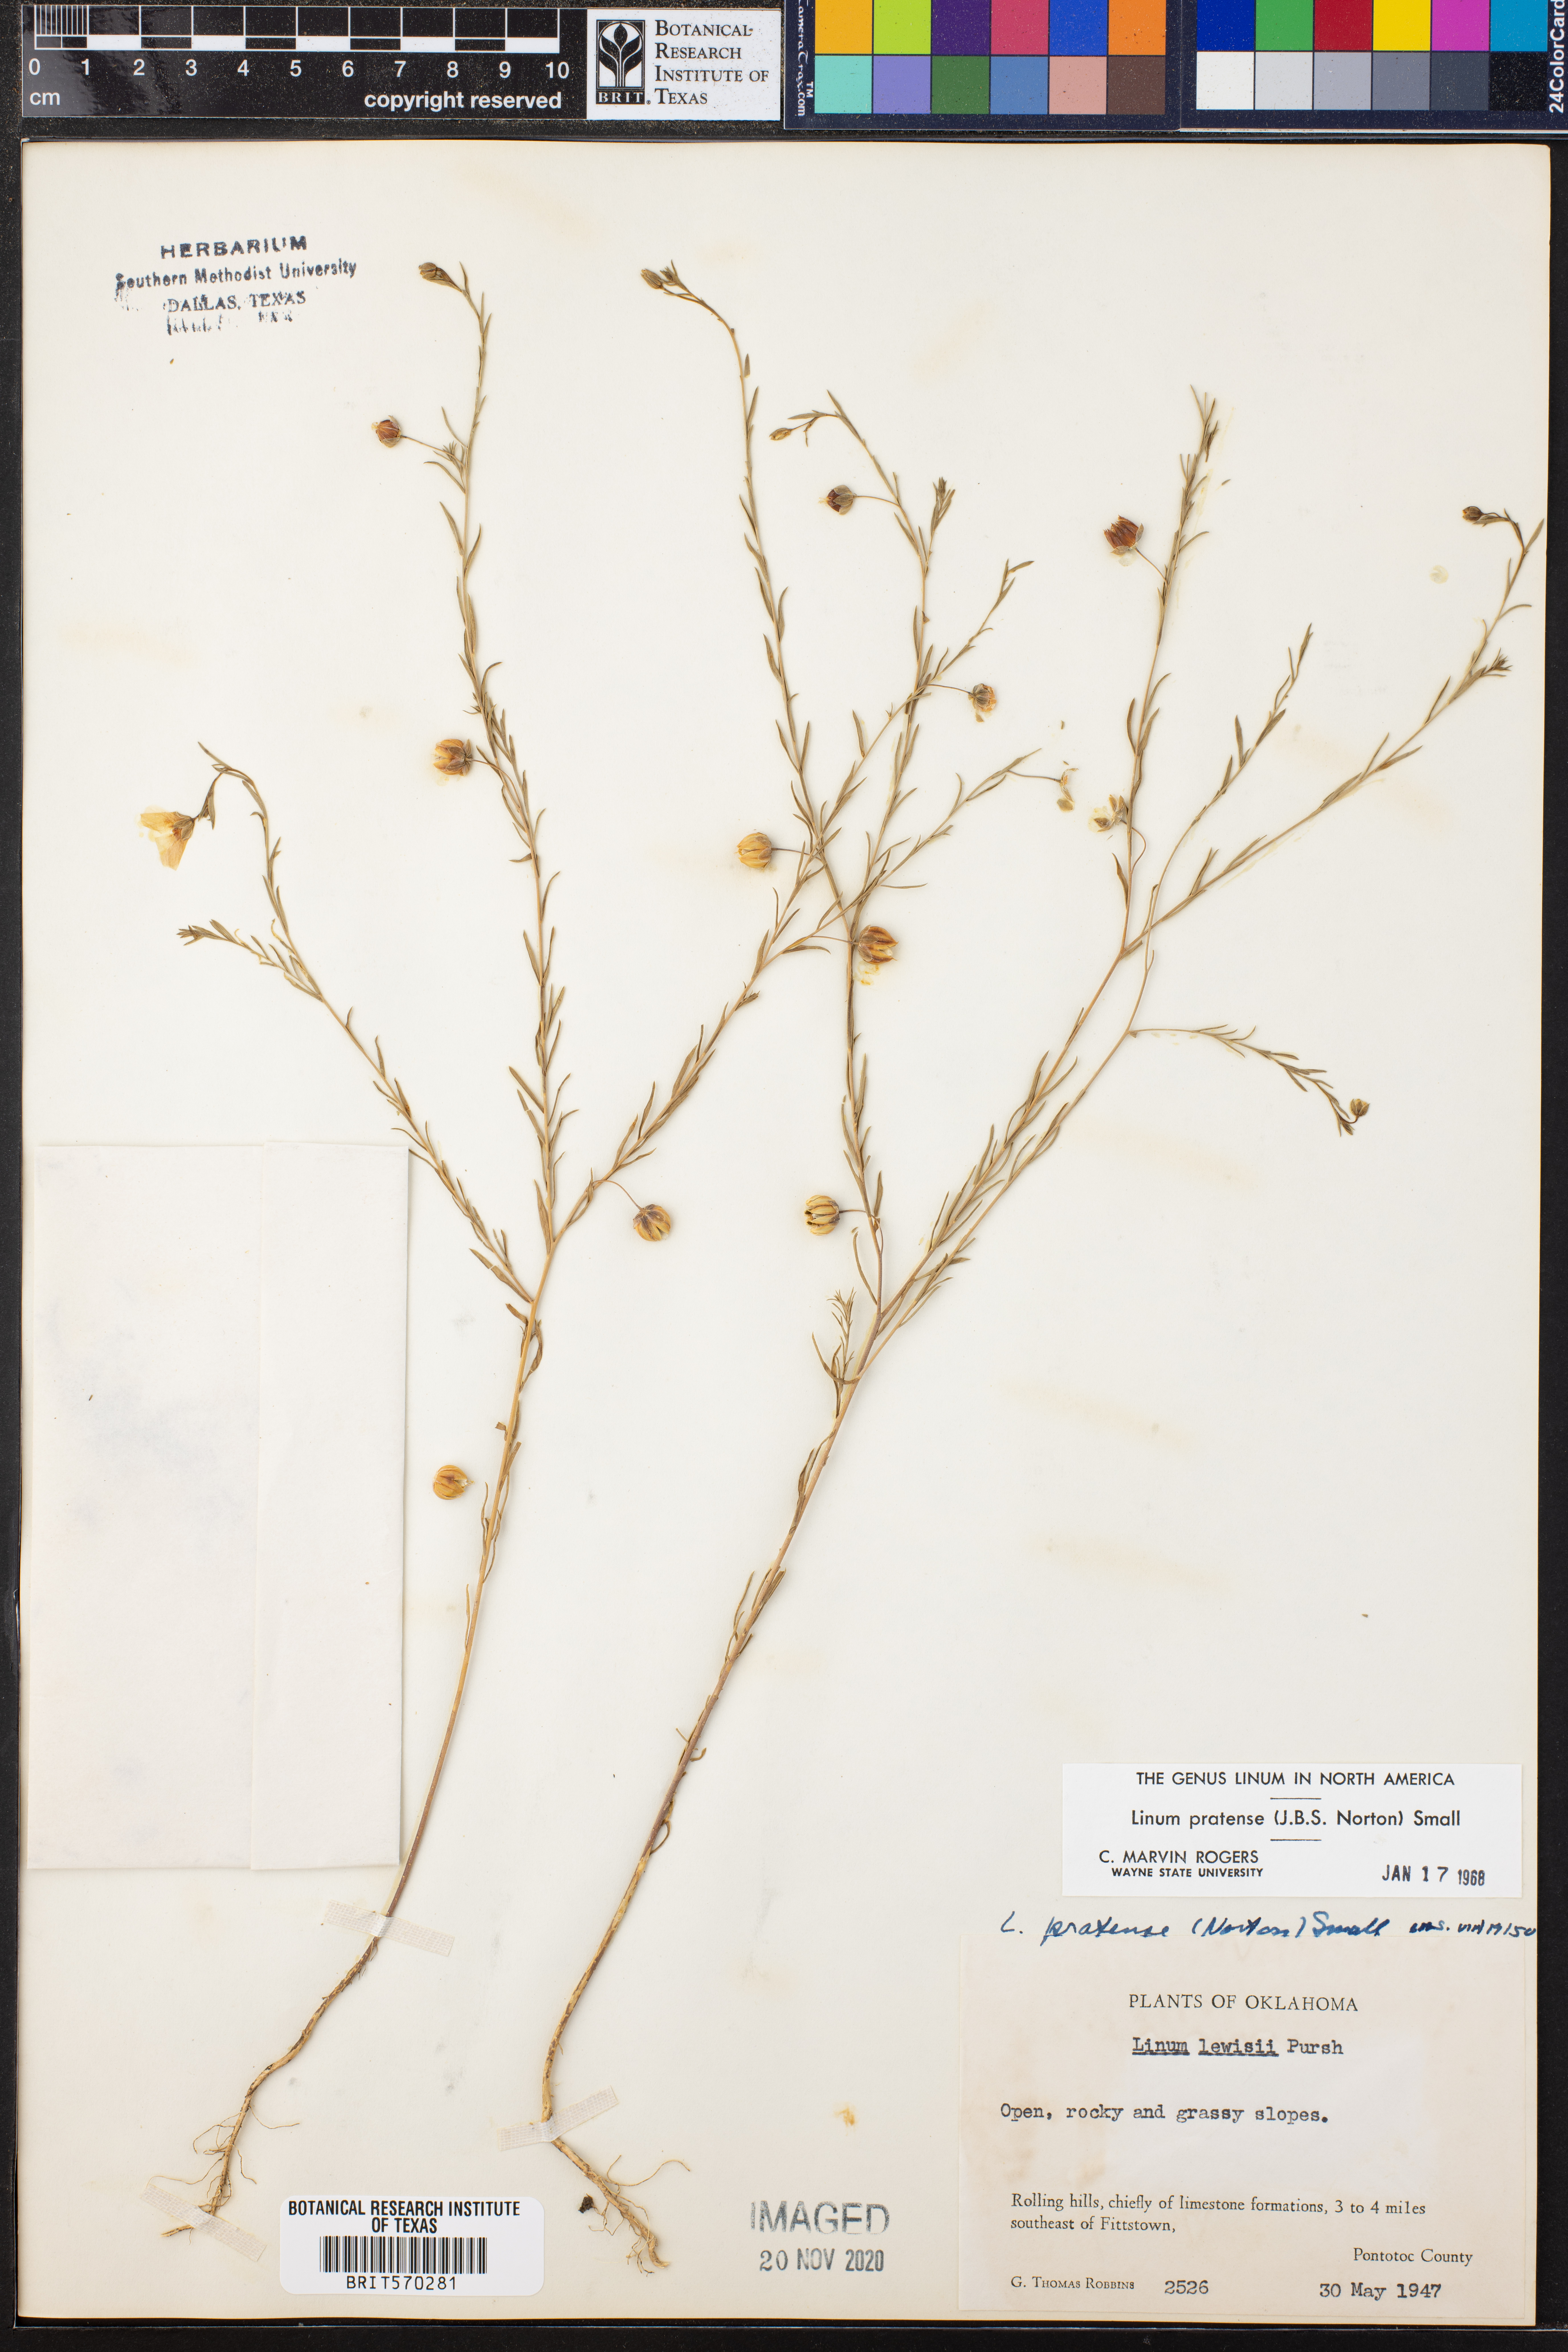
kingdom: Plantae
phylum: Tracheophyta
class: Magnoliopsida
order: Malpighiales
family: Linaceae
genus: Linum
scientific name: Linum pratense
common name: Norton's flax
